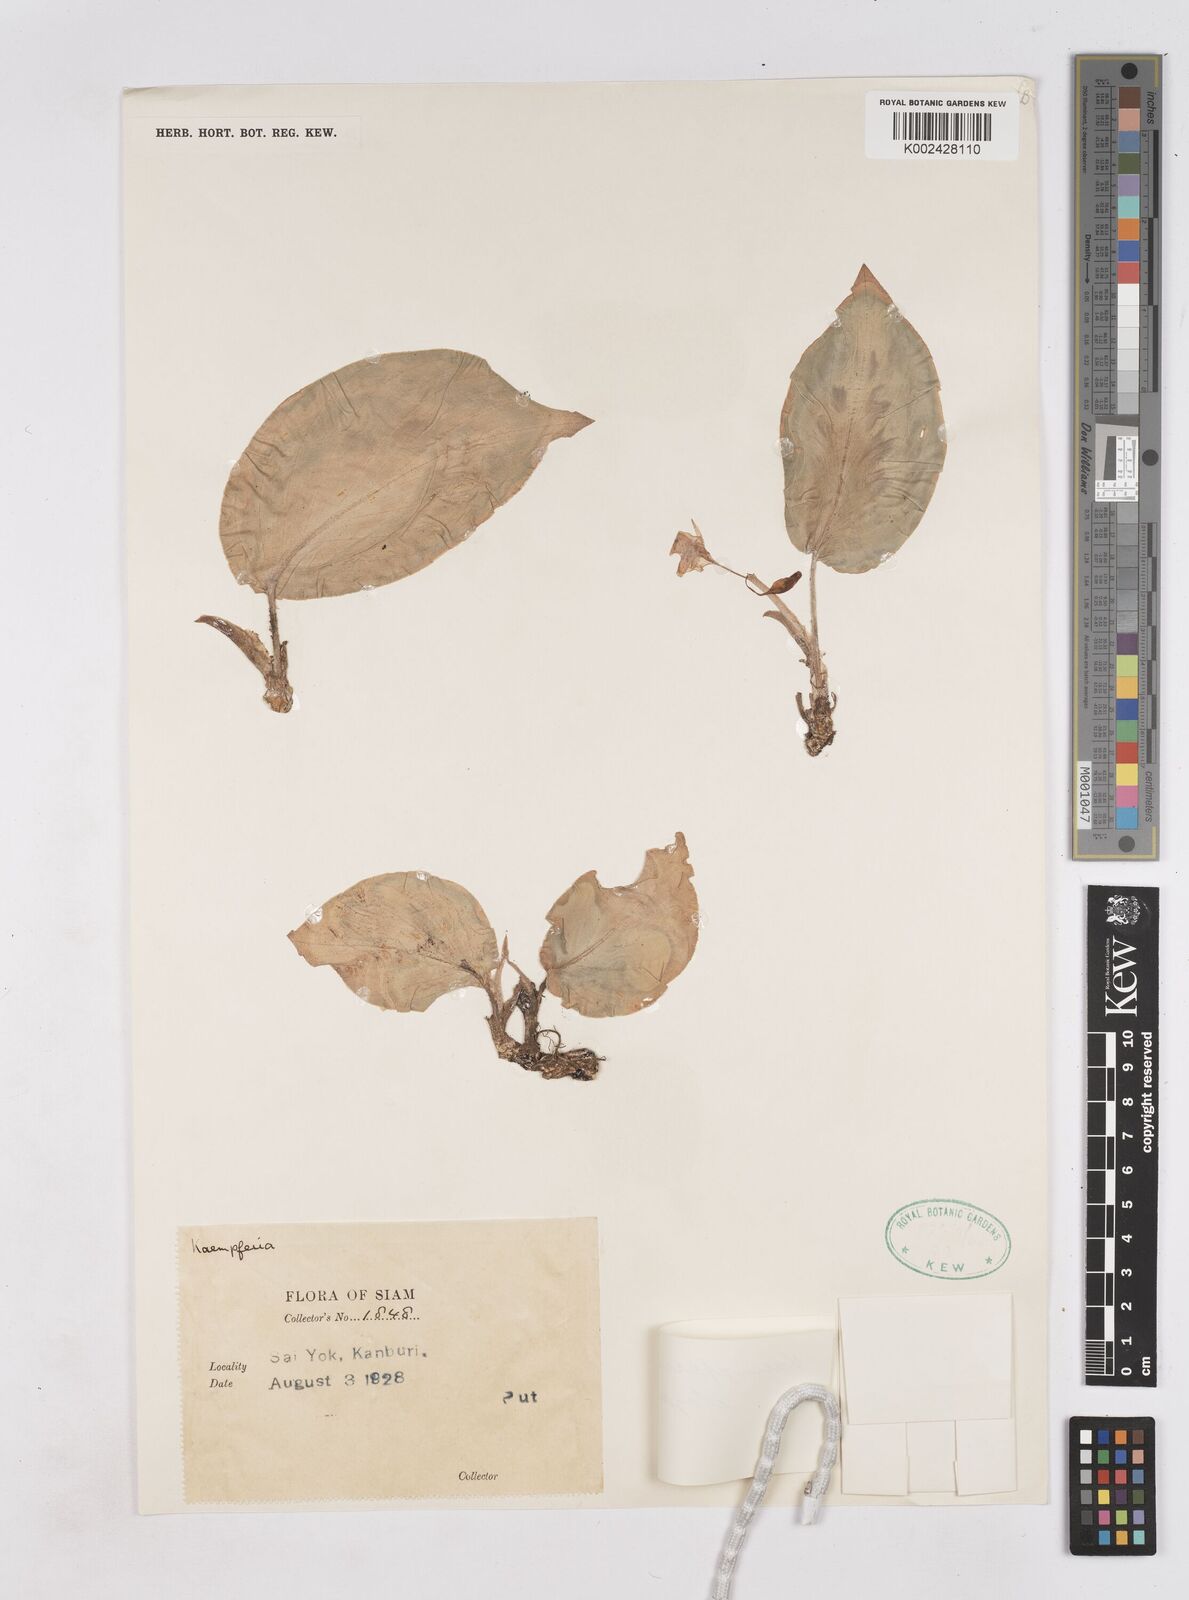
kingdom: Plantae
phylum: Tracheophyta
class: Liliopsida
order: Zingiberales
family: Zingiberaceae
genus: Kaempferia
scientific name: Kaempferia elegans
